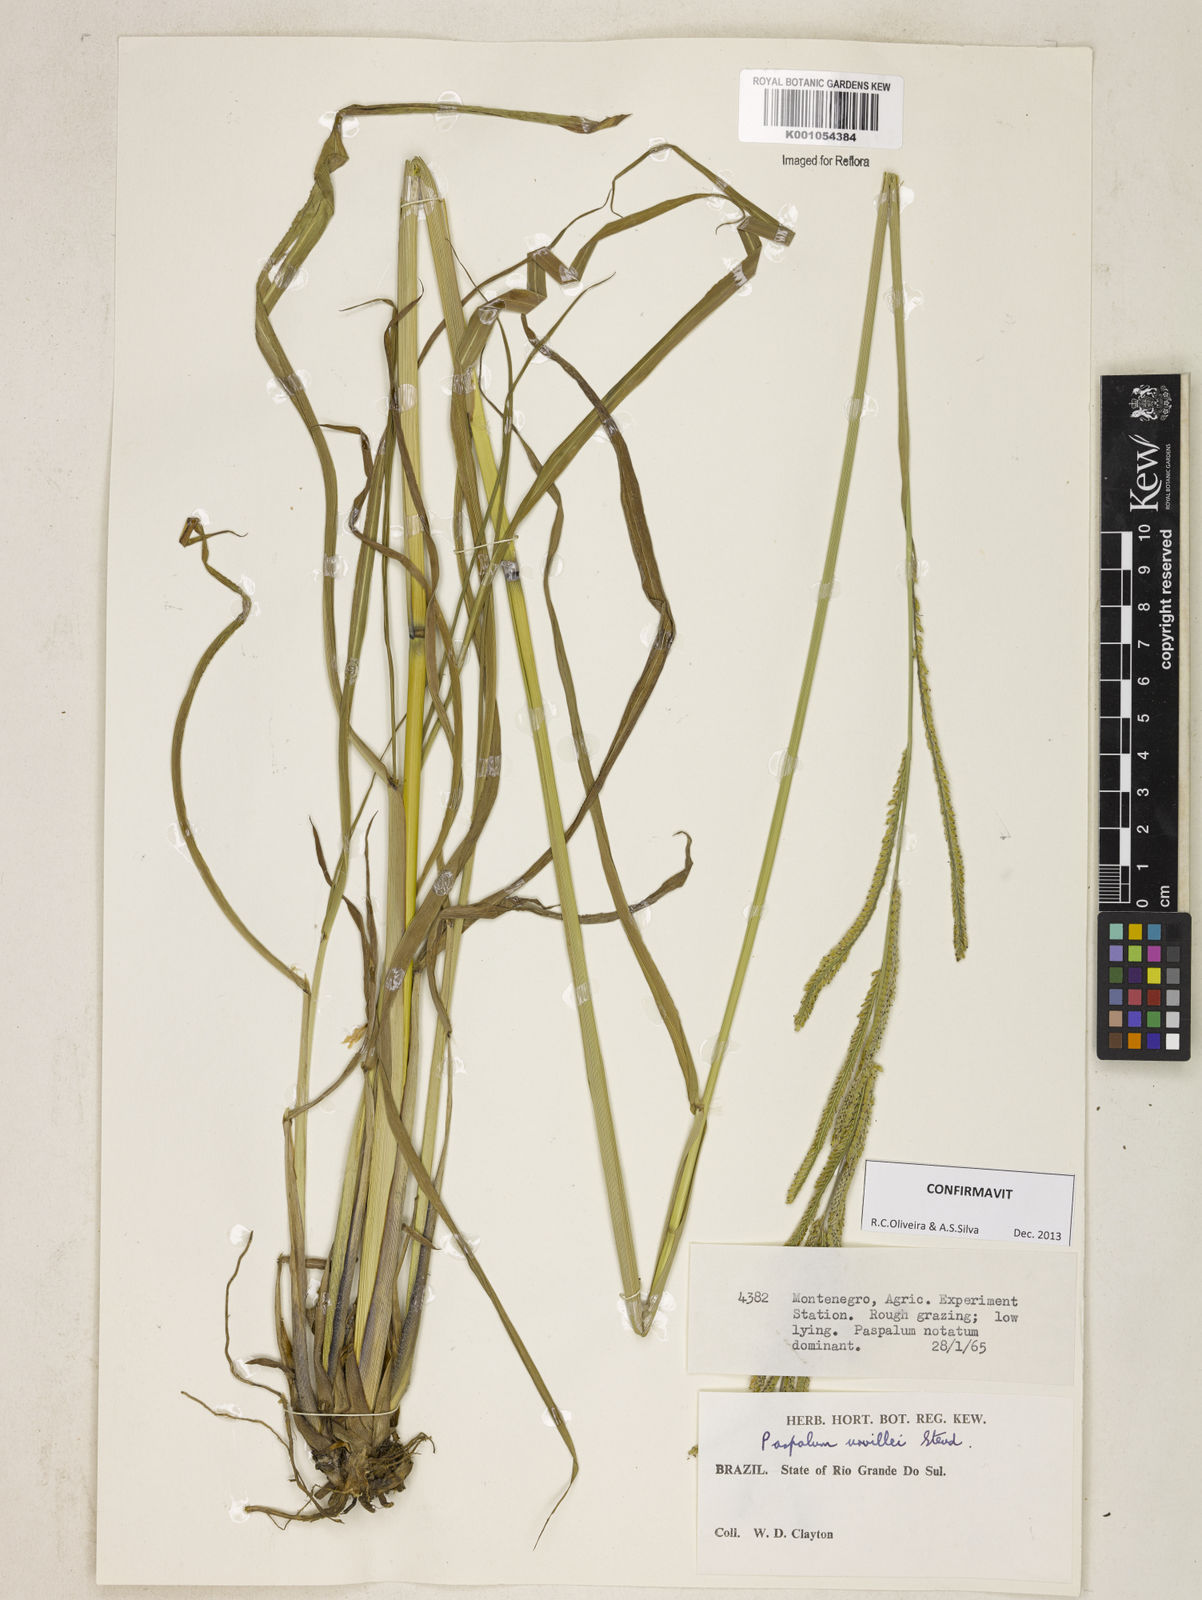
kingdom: Plantae
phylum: Tracheophyta
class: Liliopsida
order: Poales
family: Poaceae
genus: Paspalum
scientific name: Paspalum urvillei
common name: Vasey's grass
